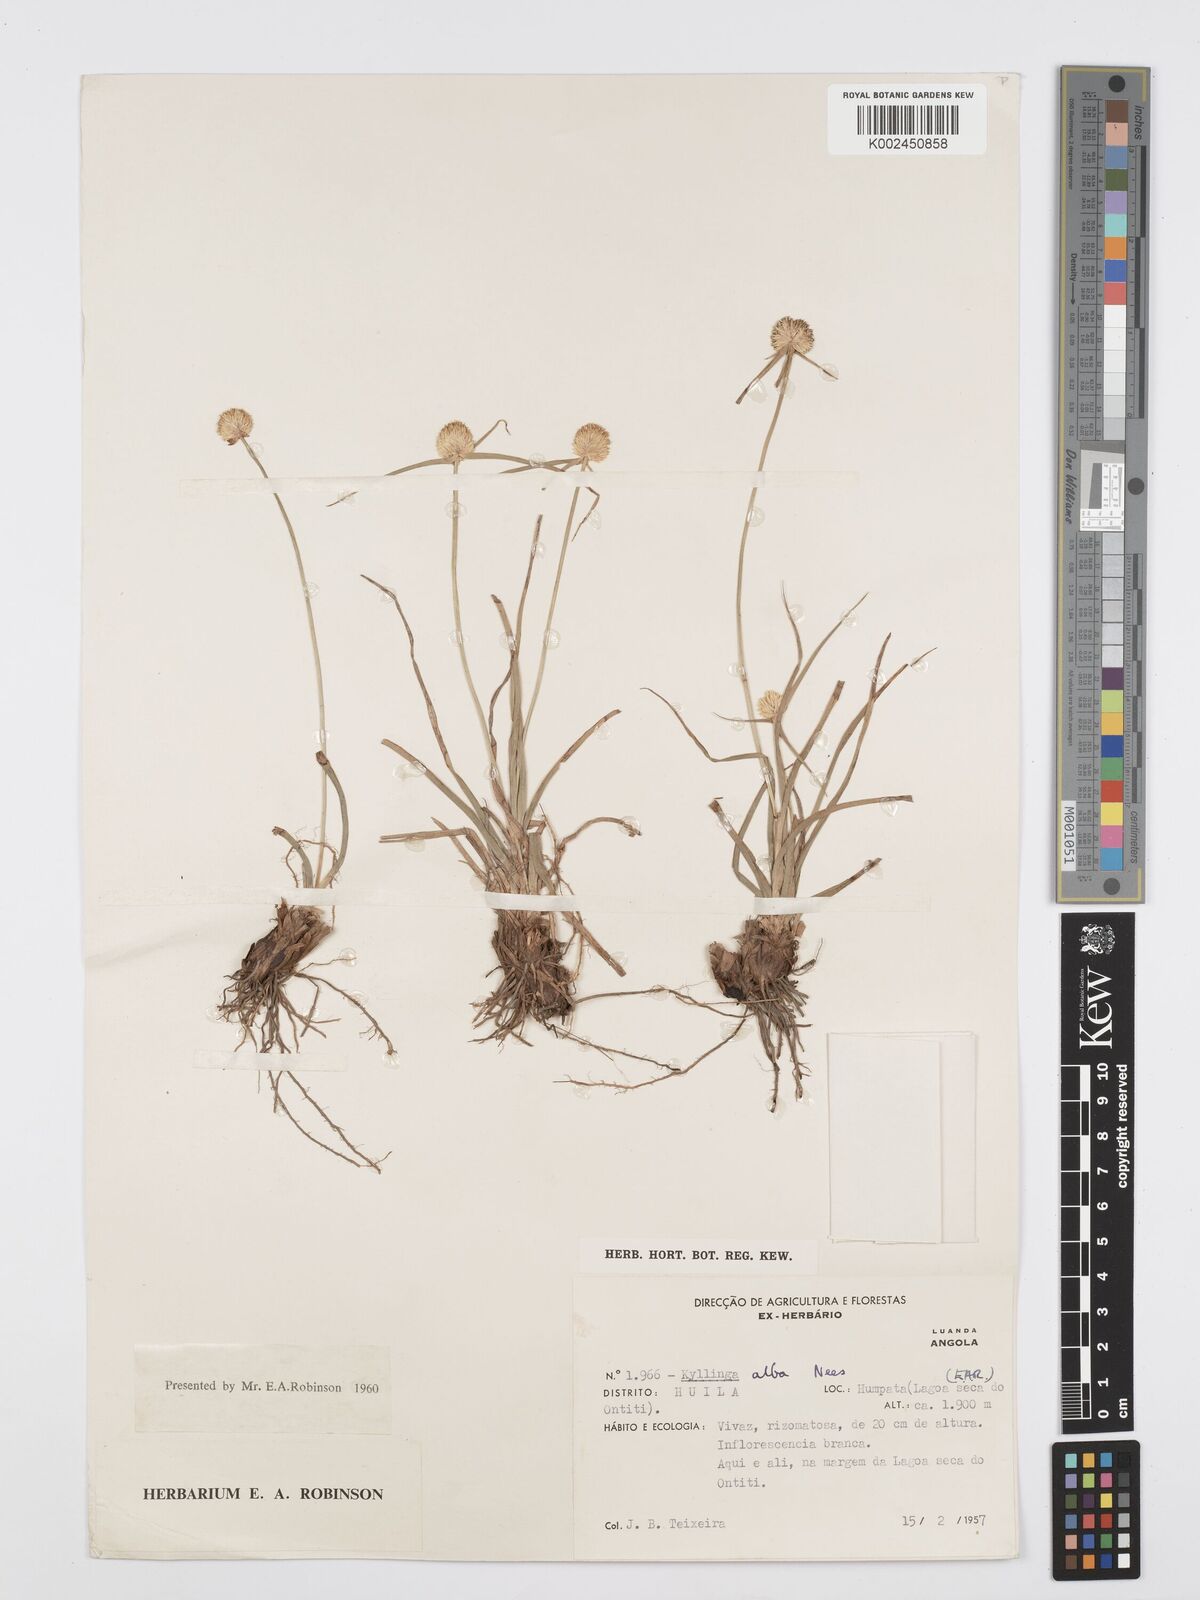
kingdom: Plantae
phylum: Tracheophyta
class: Liliopsida
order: Poales
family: Cyperaceae
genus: Cyperus
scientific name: Cyperus
